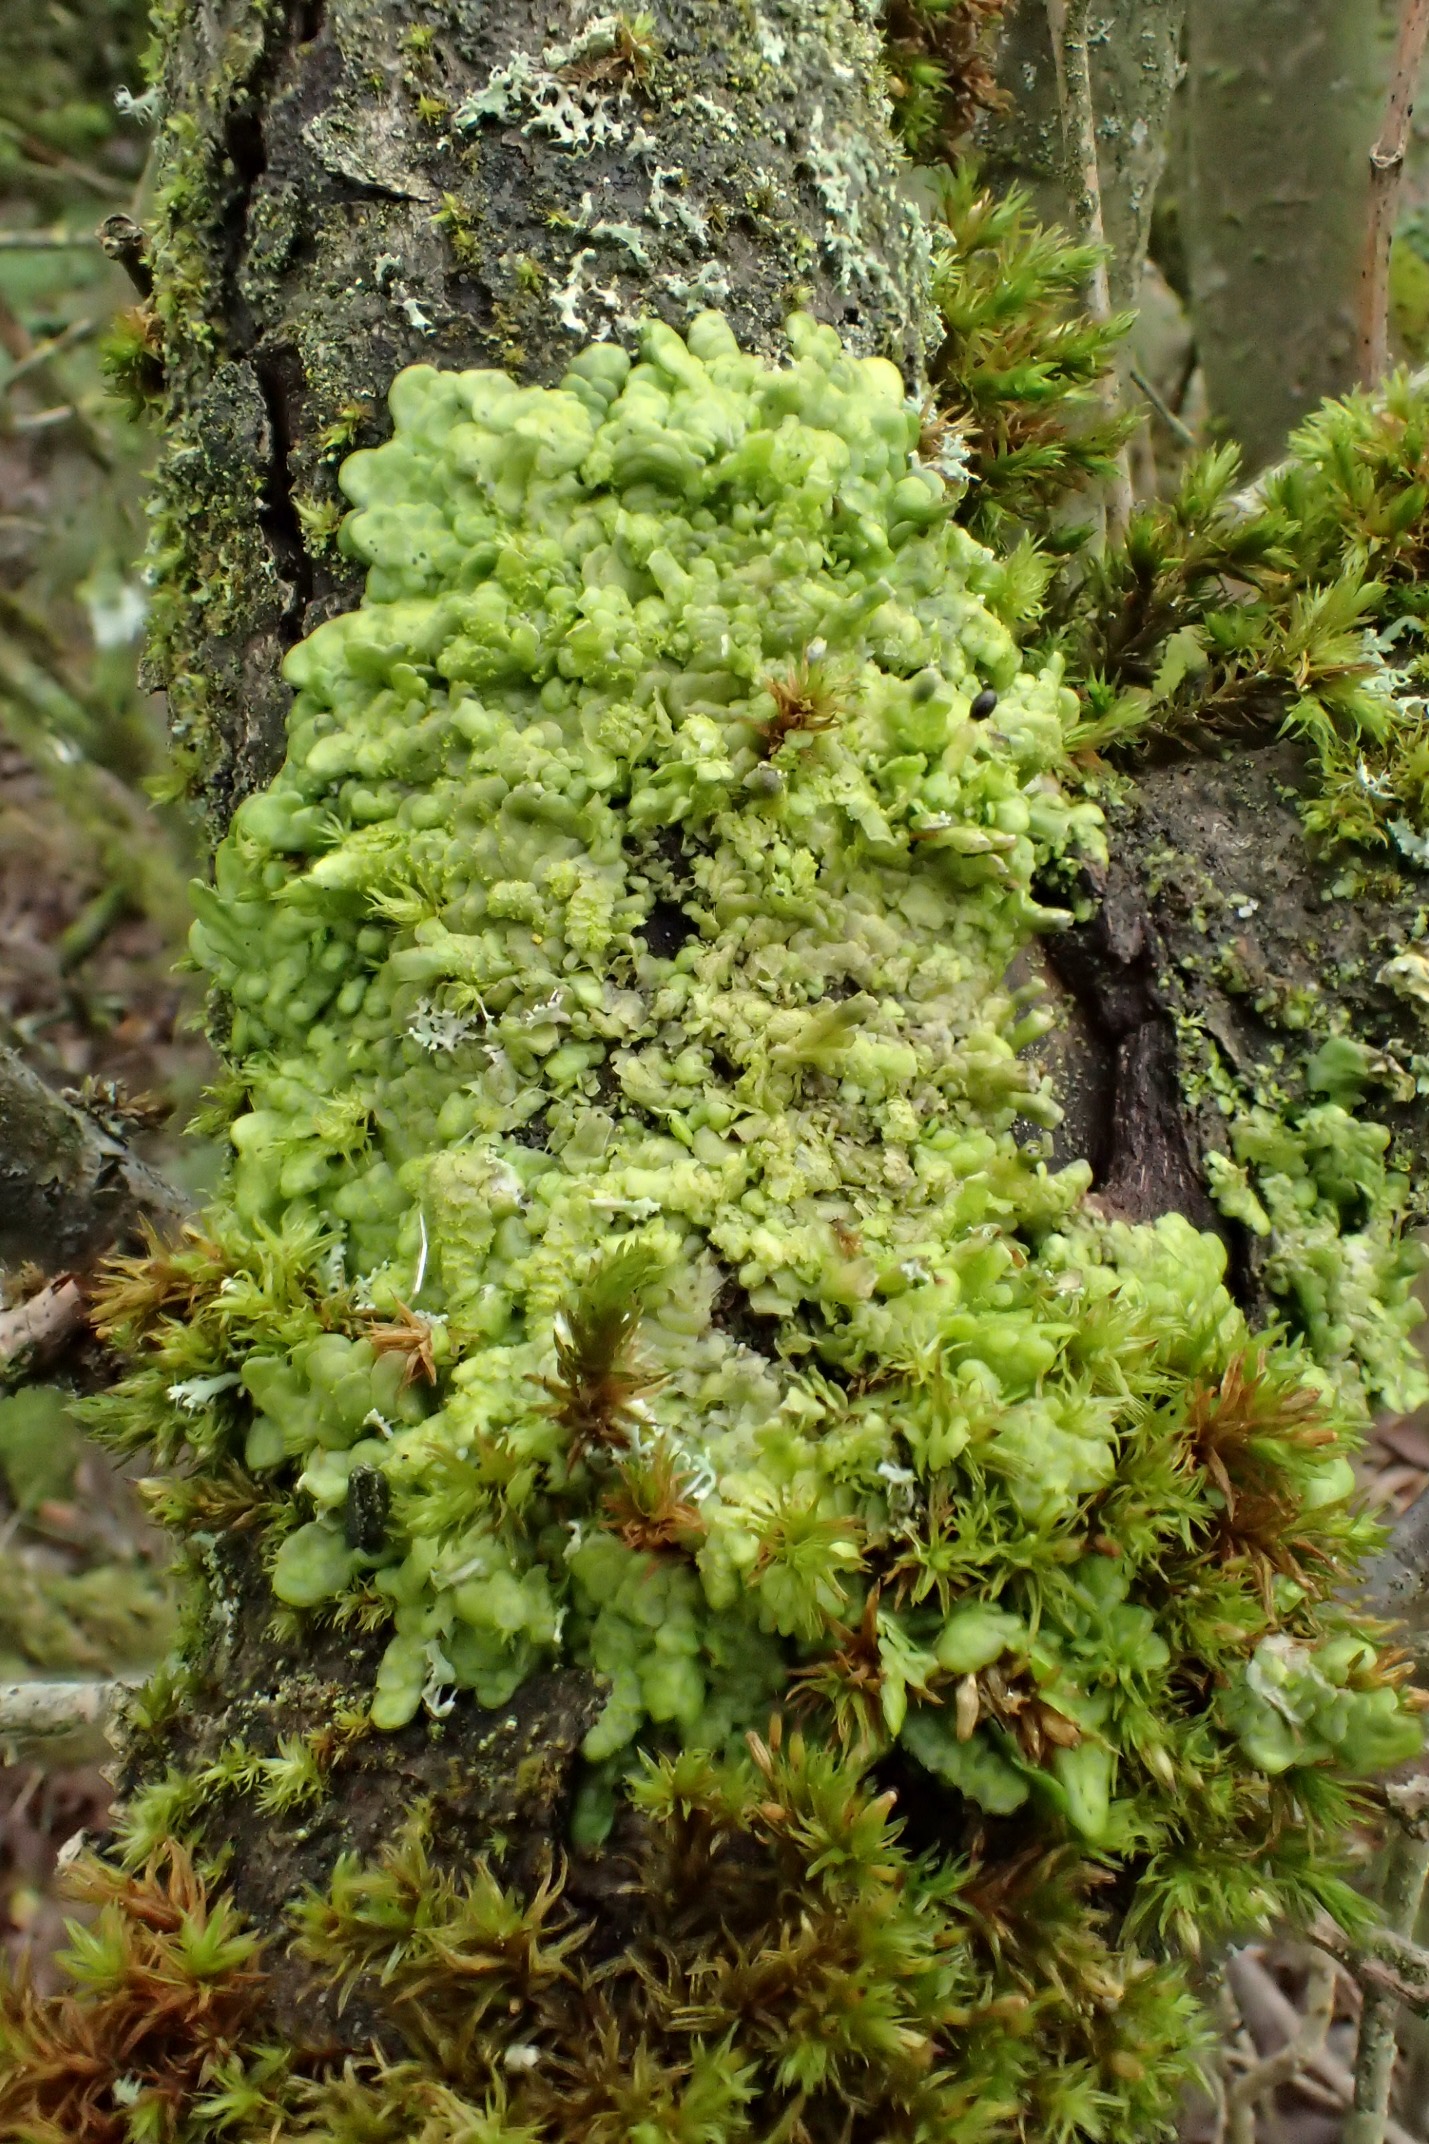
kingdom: Plantae
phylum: Marchantiophyta
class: Jungermanniopsida
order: Porellales
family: Radulaceae
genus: Radula
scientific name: Radula complanata
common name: Almindelig spartelmos
